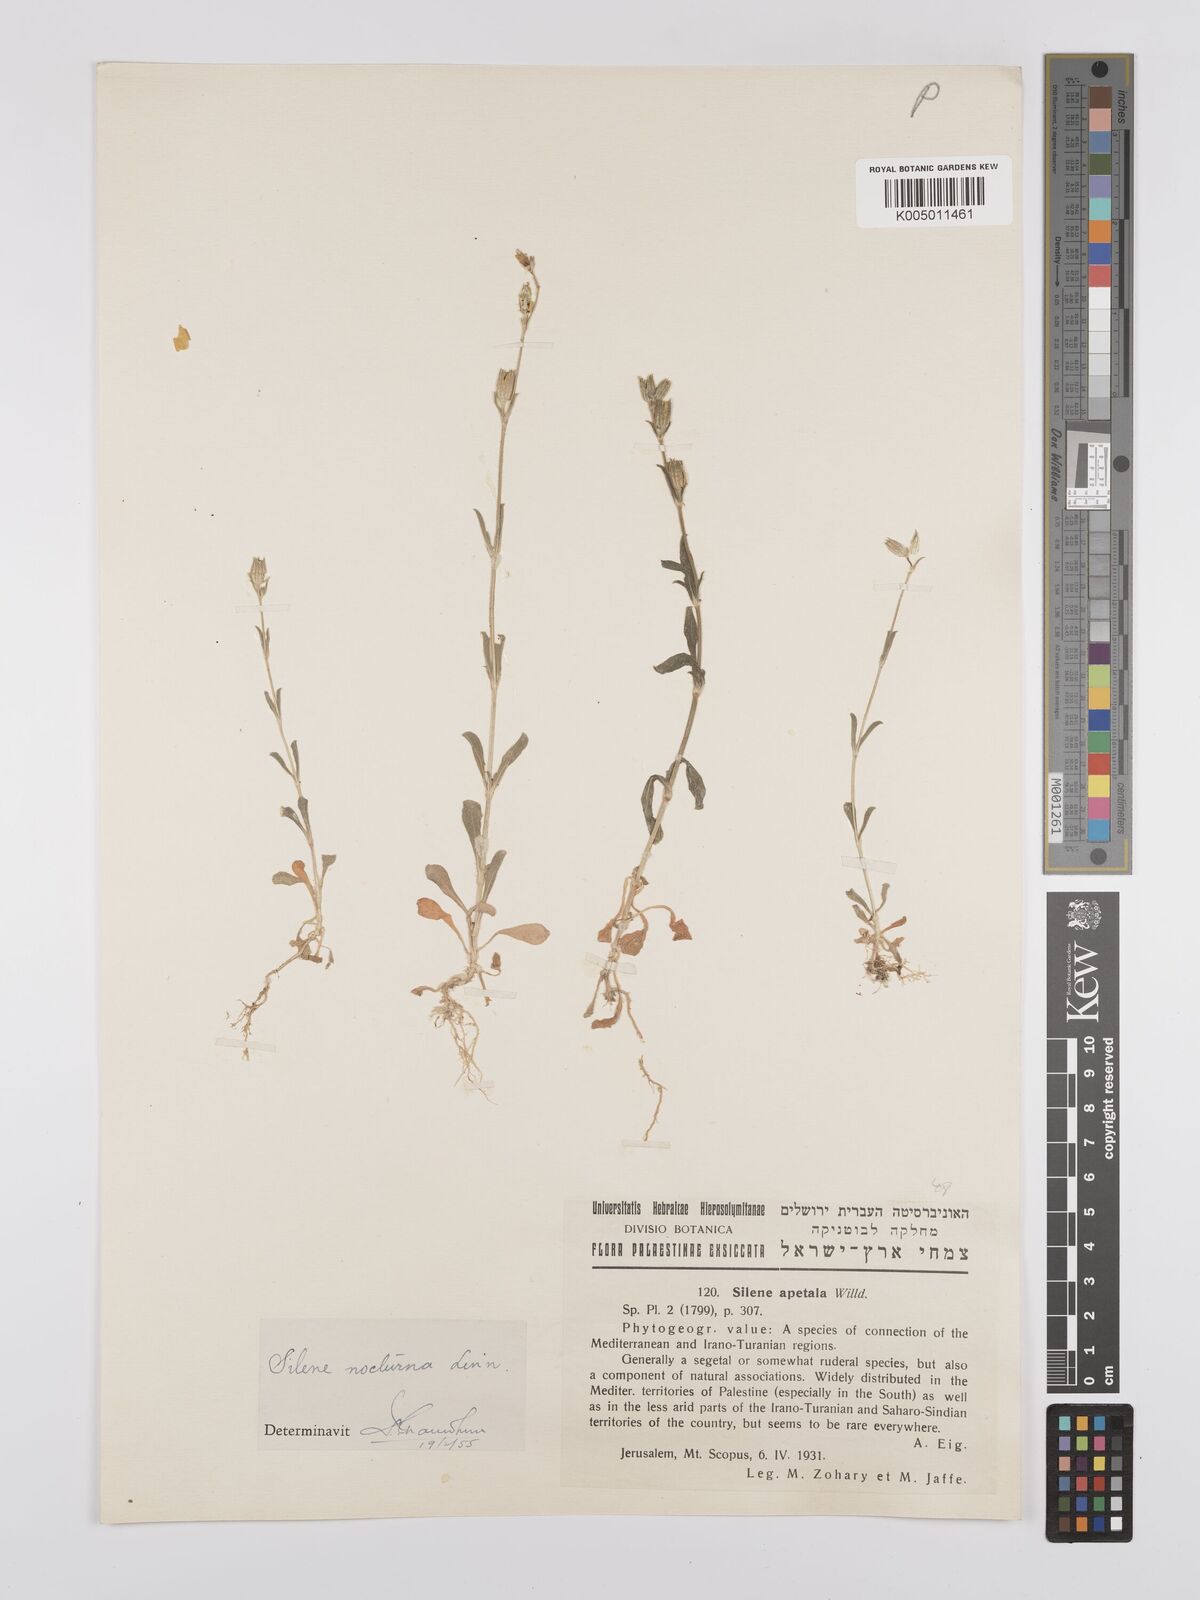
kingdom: Plantae
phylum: Tracheophyta
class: Magnoliopsida
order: Caryophyllales
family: Caryophyllaceae
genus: Silene
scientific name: Silene nocturna
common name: Mediterranean catchfly
